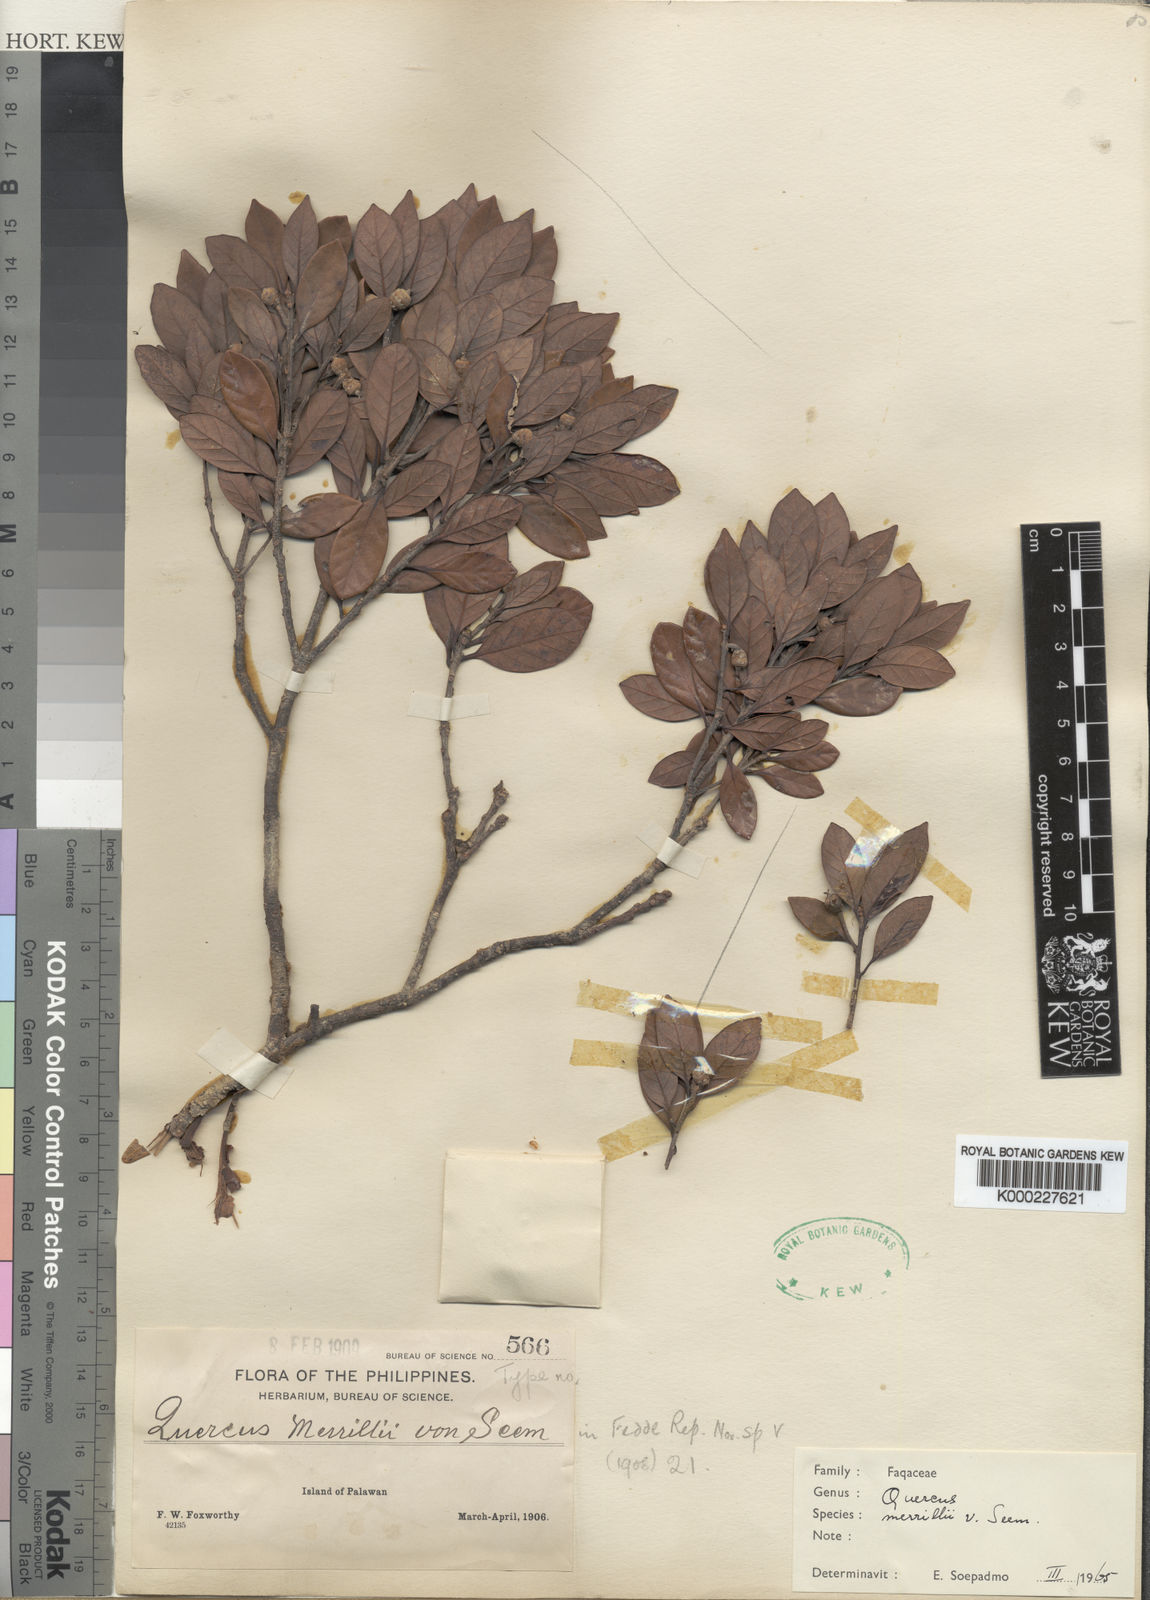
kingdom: Plantae
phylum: Tracheophyta
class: Magnoliopsida
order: Fagales
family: Fagaceae
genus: Quercus
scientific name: Quercus merrillii
